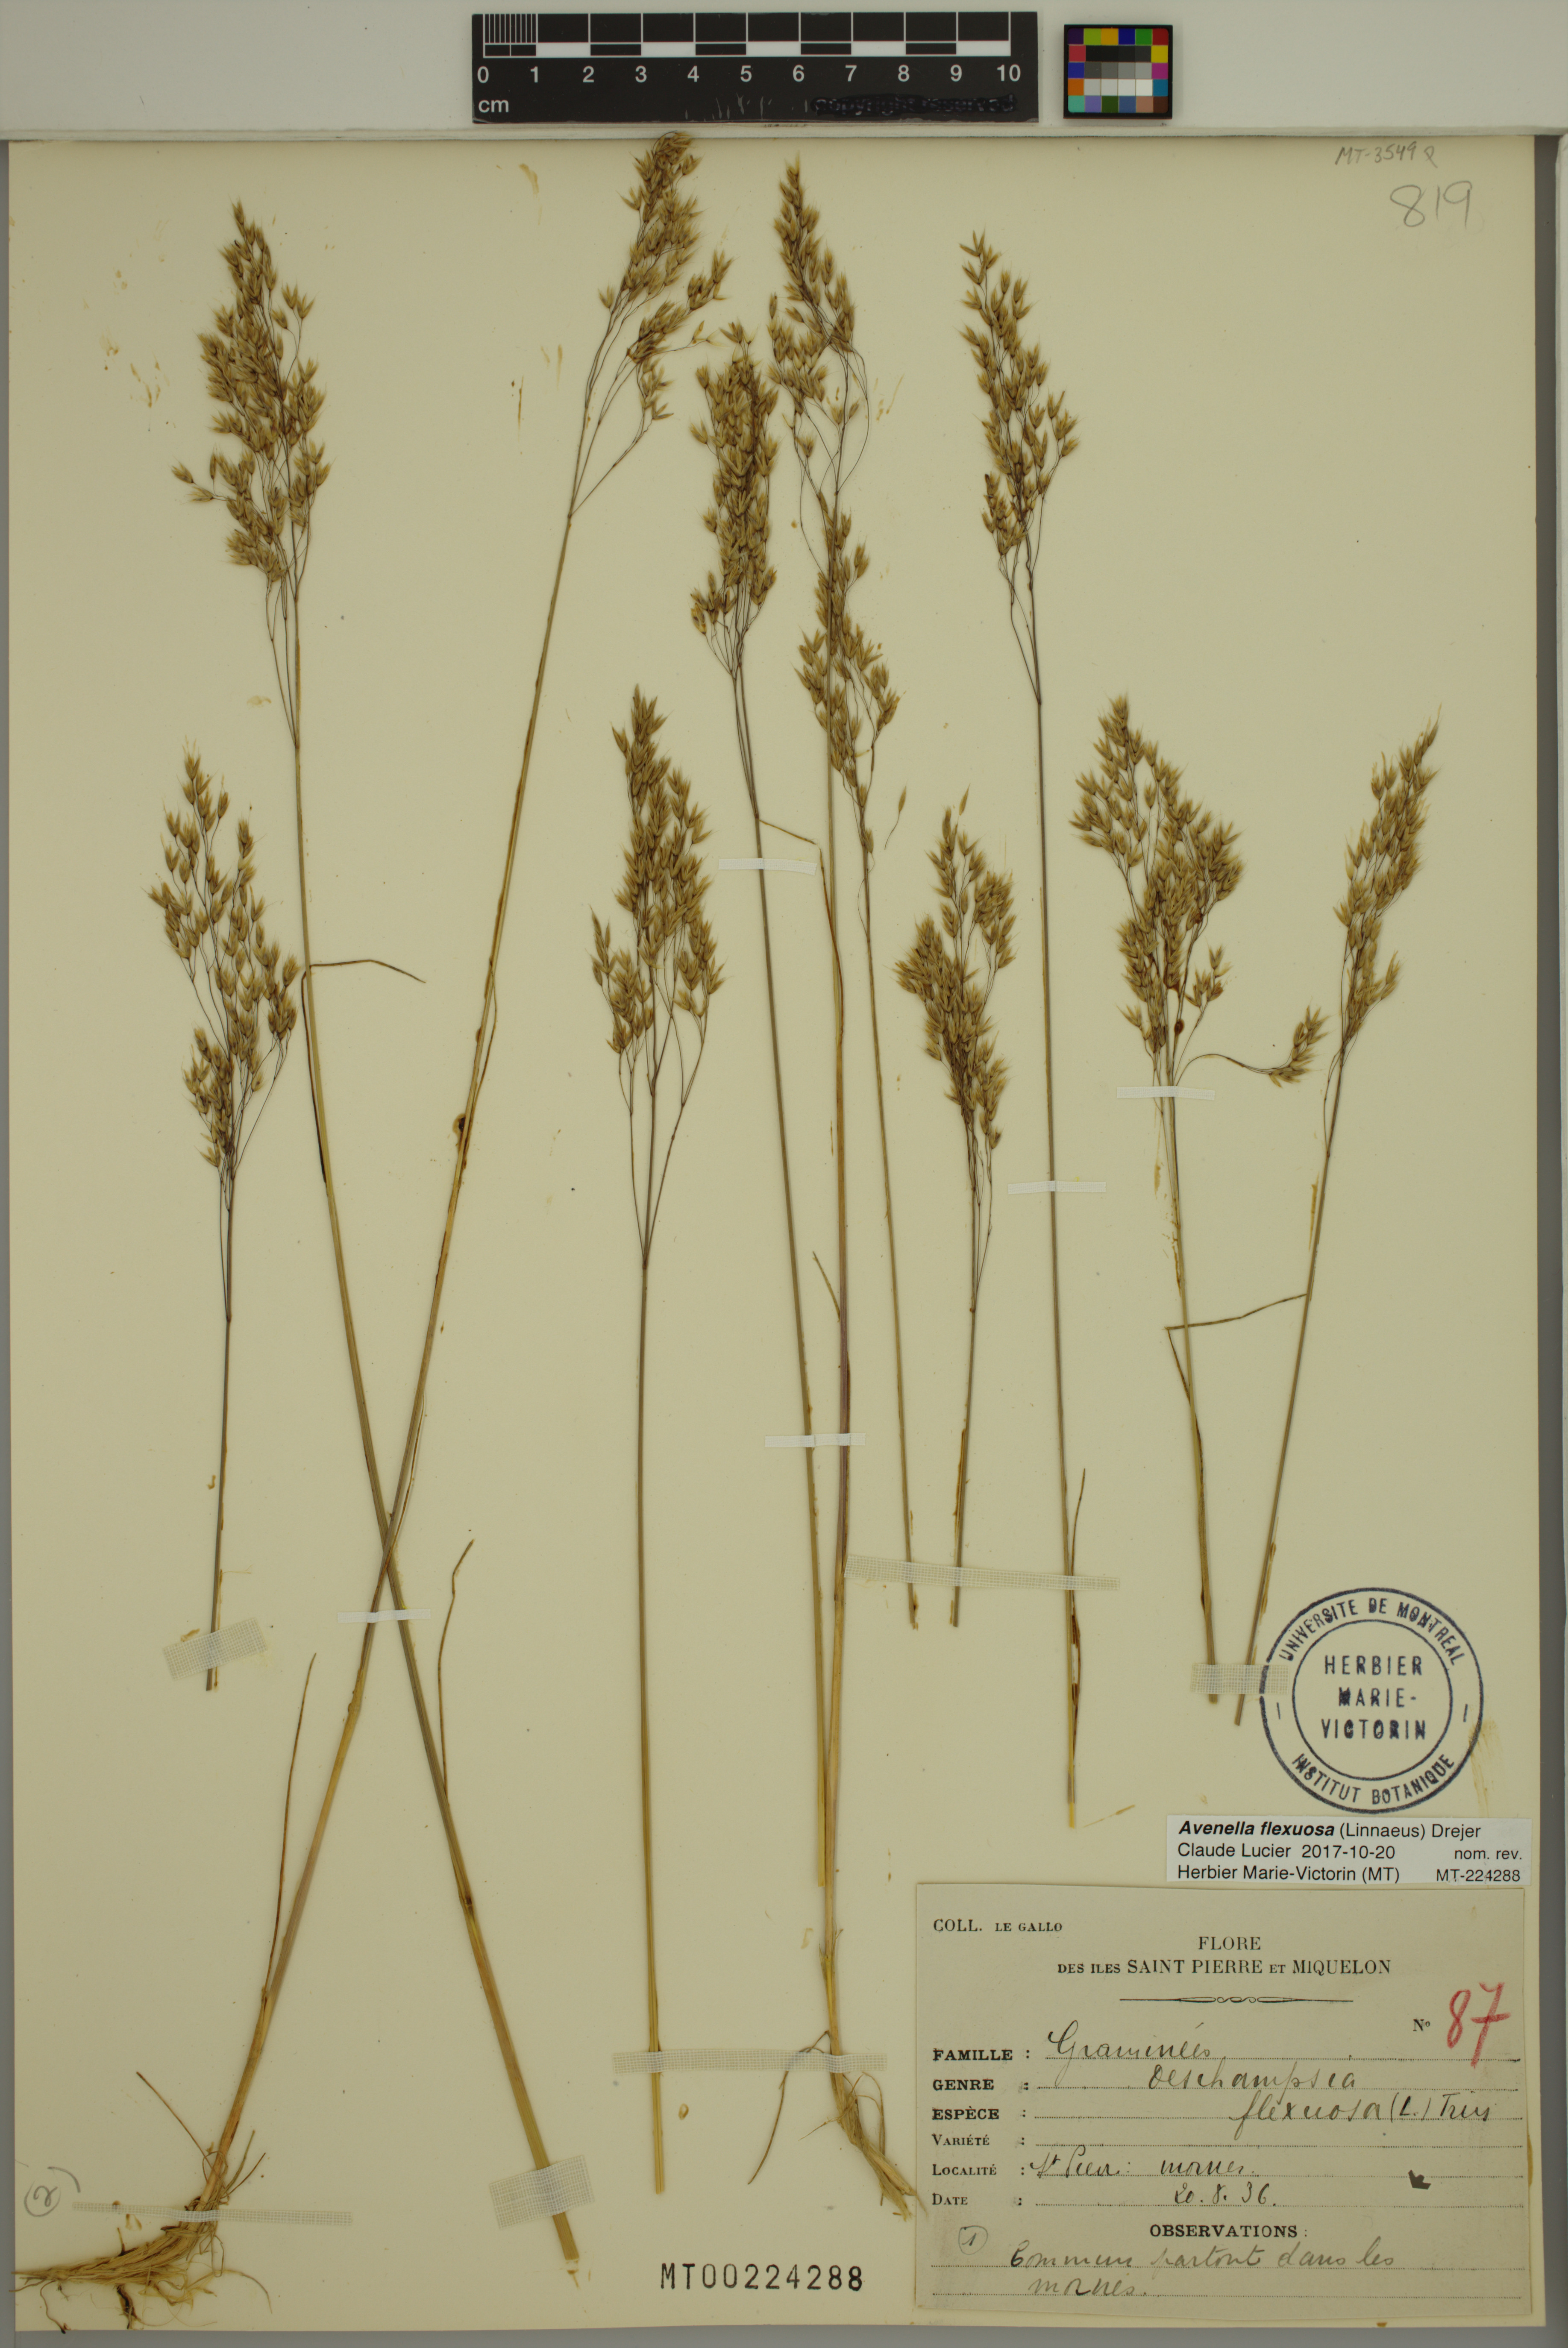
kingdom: Plantae
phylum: Tracheophyta
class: Liliopsida
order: Poales
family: Poaceae
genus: Avenella
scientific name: Avenella flexuosa
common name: Wavy hairgrass
